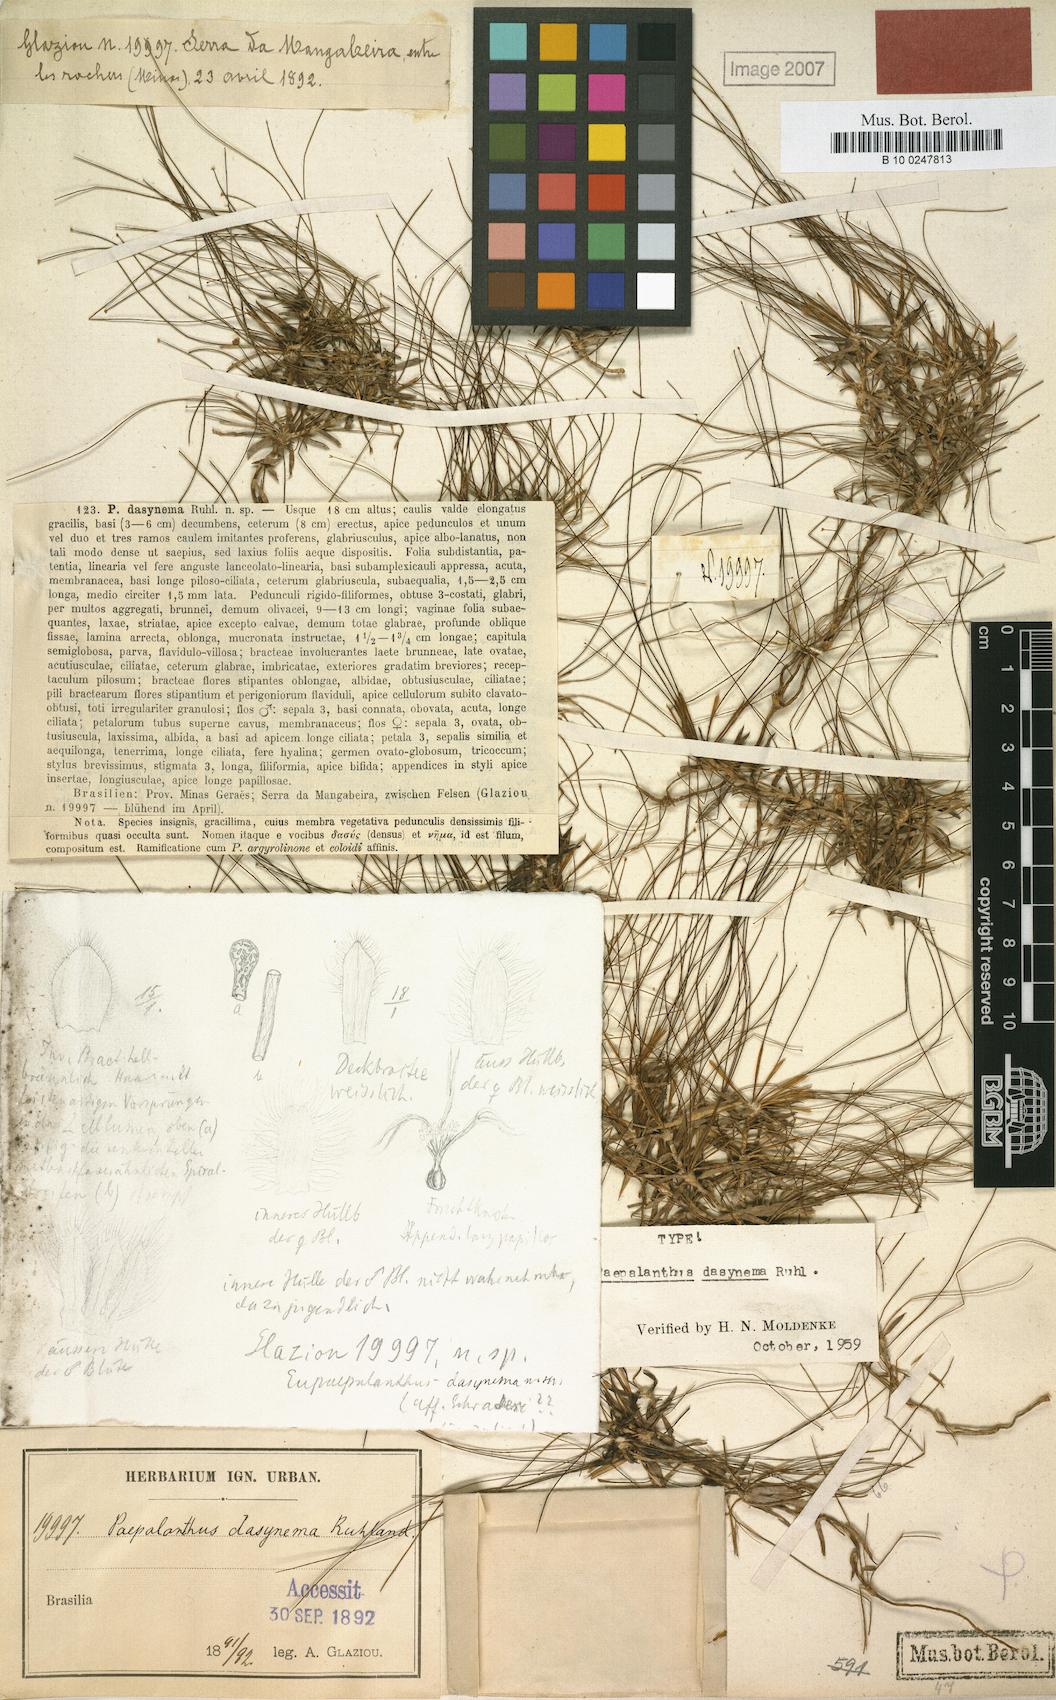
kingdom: Plantae
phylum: Tracheophyta
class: Liliopsida
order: Poales
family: Eriocaulaceae
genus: Paepalanthus
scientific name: Paepalanthus dasynema
